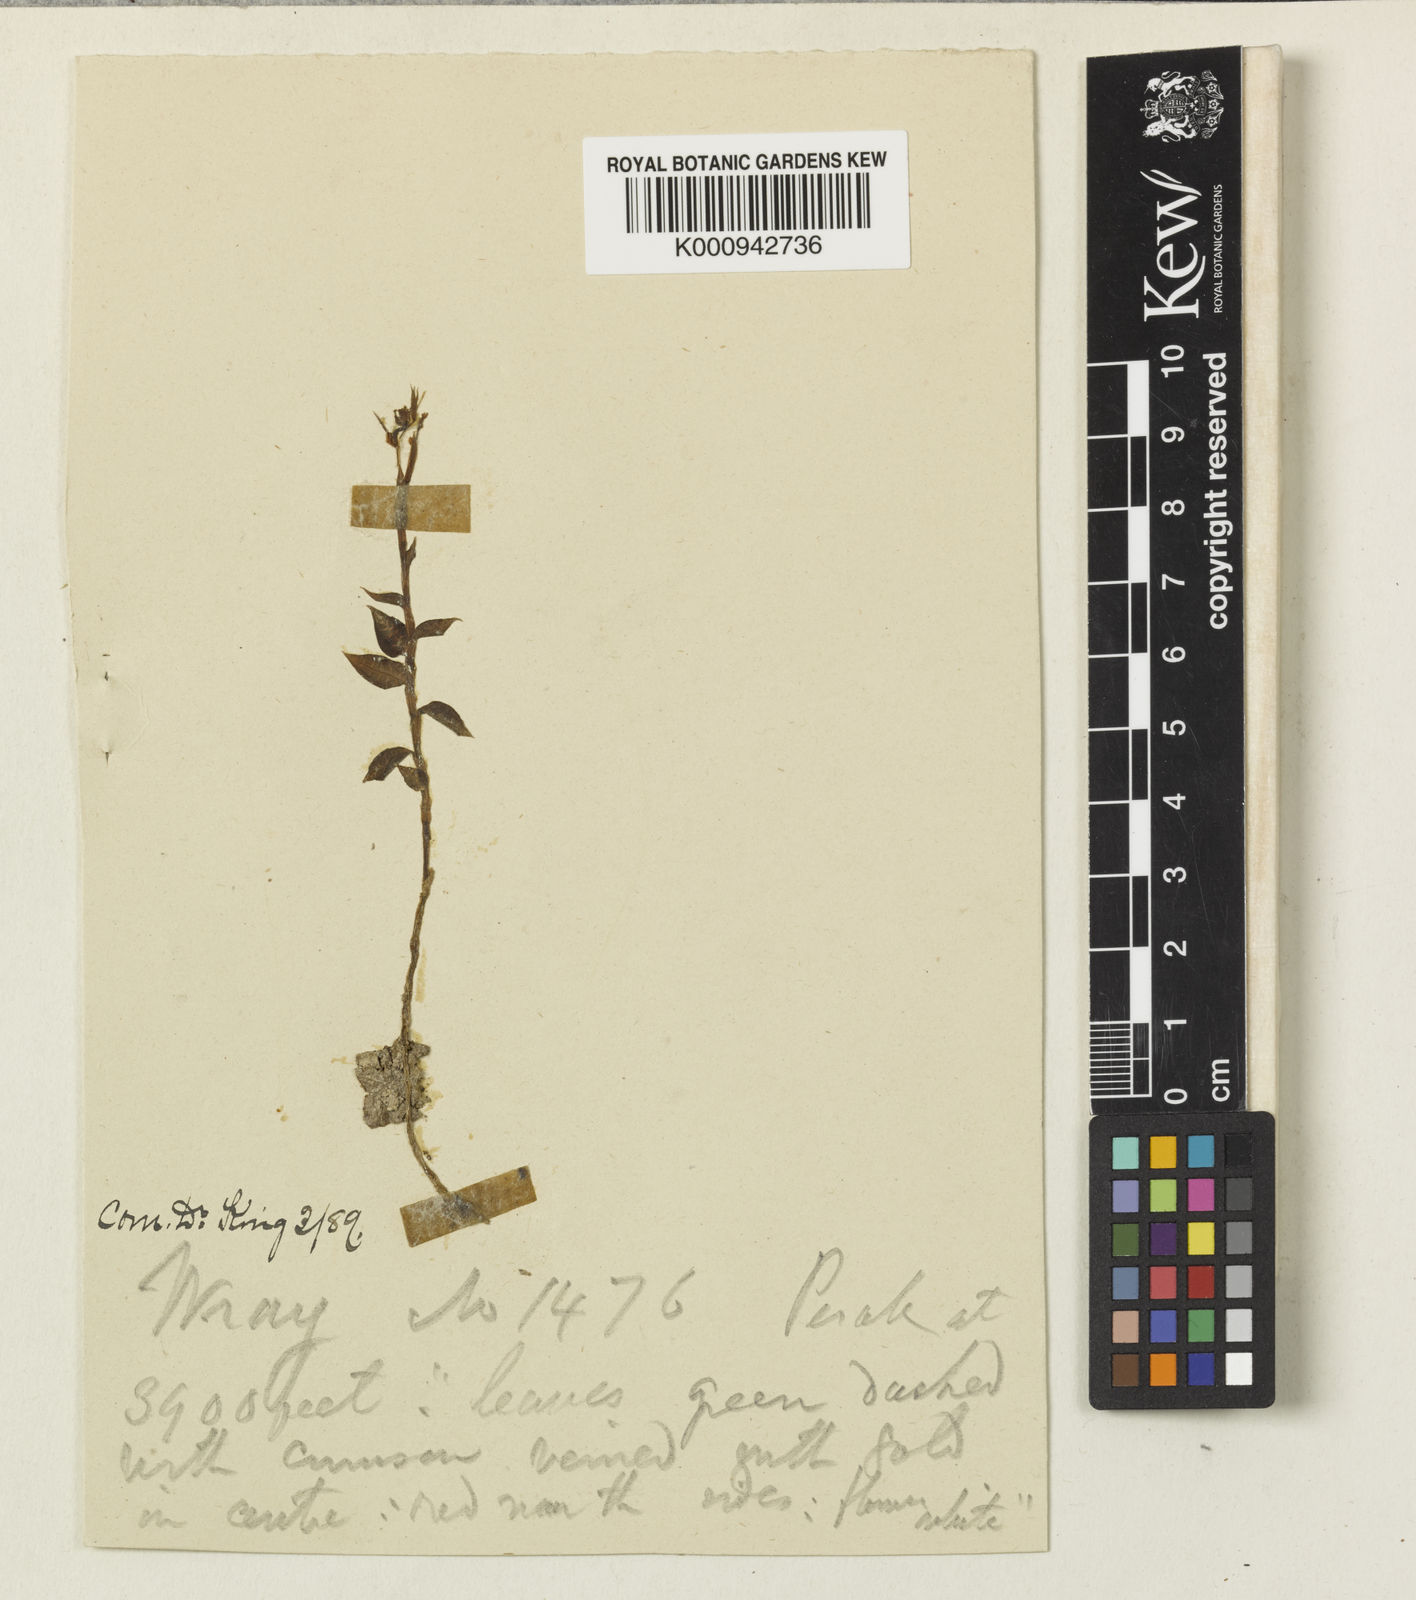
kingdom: Plantae
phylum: Tracheophyta
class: Liliopsida
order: Asparagales
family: Orchidaceae
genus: Odontochilus
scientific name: Odontochilus uniflorus
